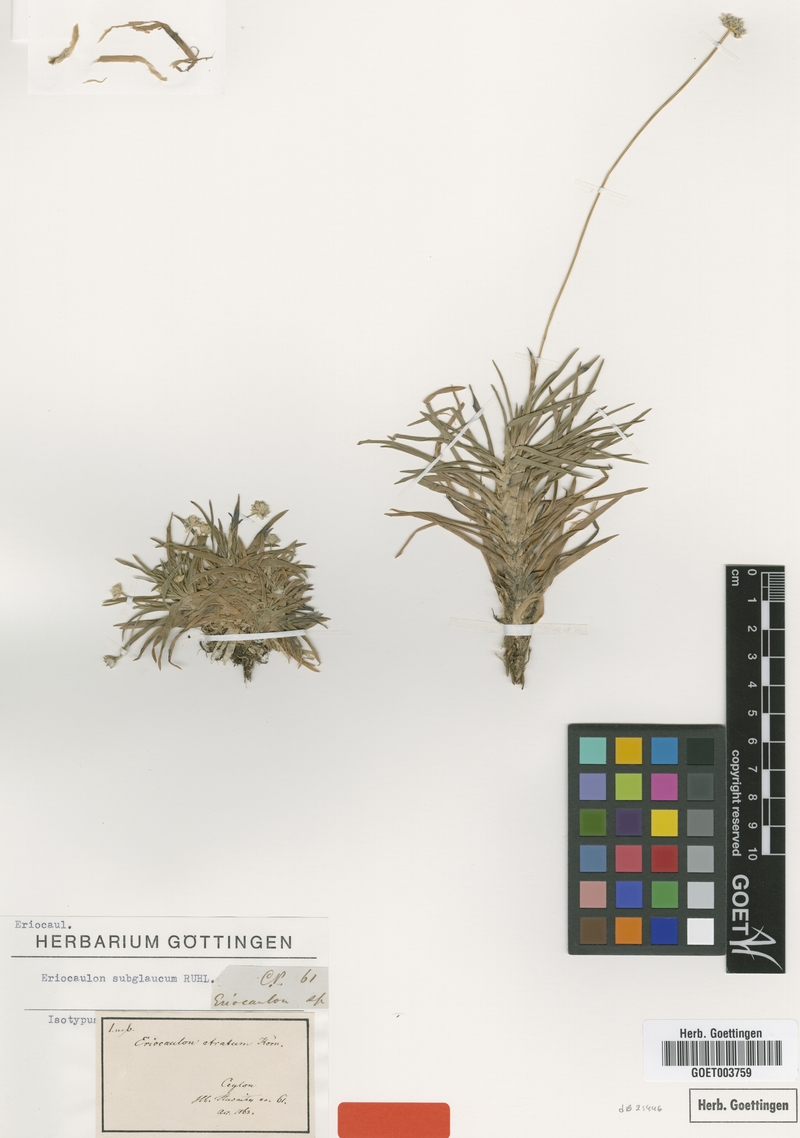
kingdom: Plantae
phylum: Tracheophyta
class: Liliopsida
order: Poales
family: Eriocaulaceae
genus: Eriocaulon
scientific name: Eriocaulon subglaucum
